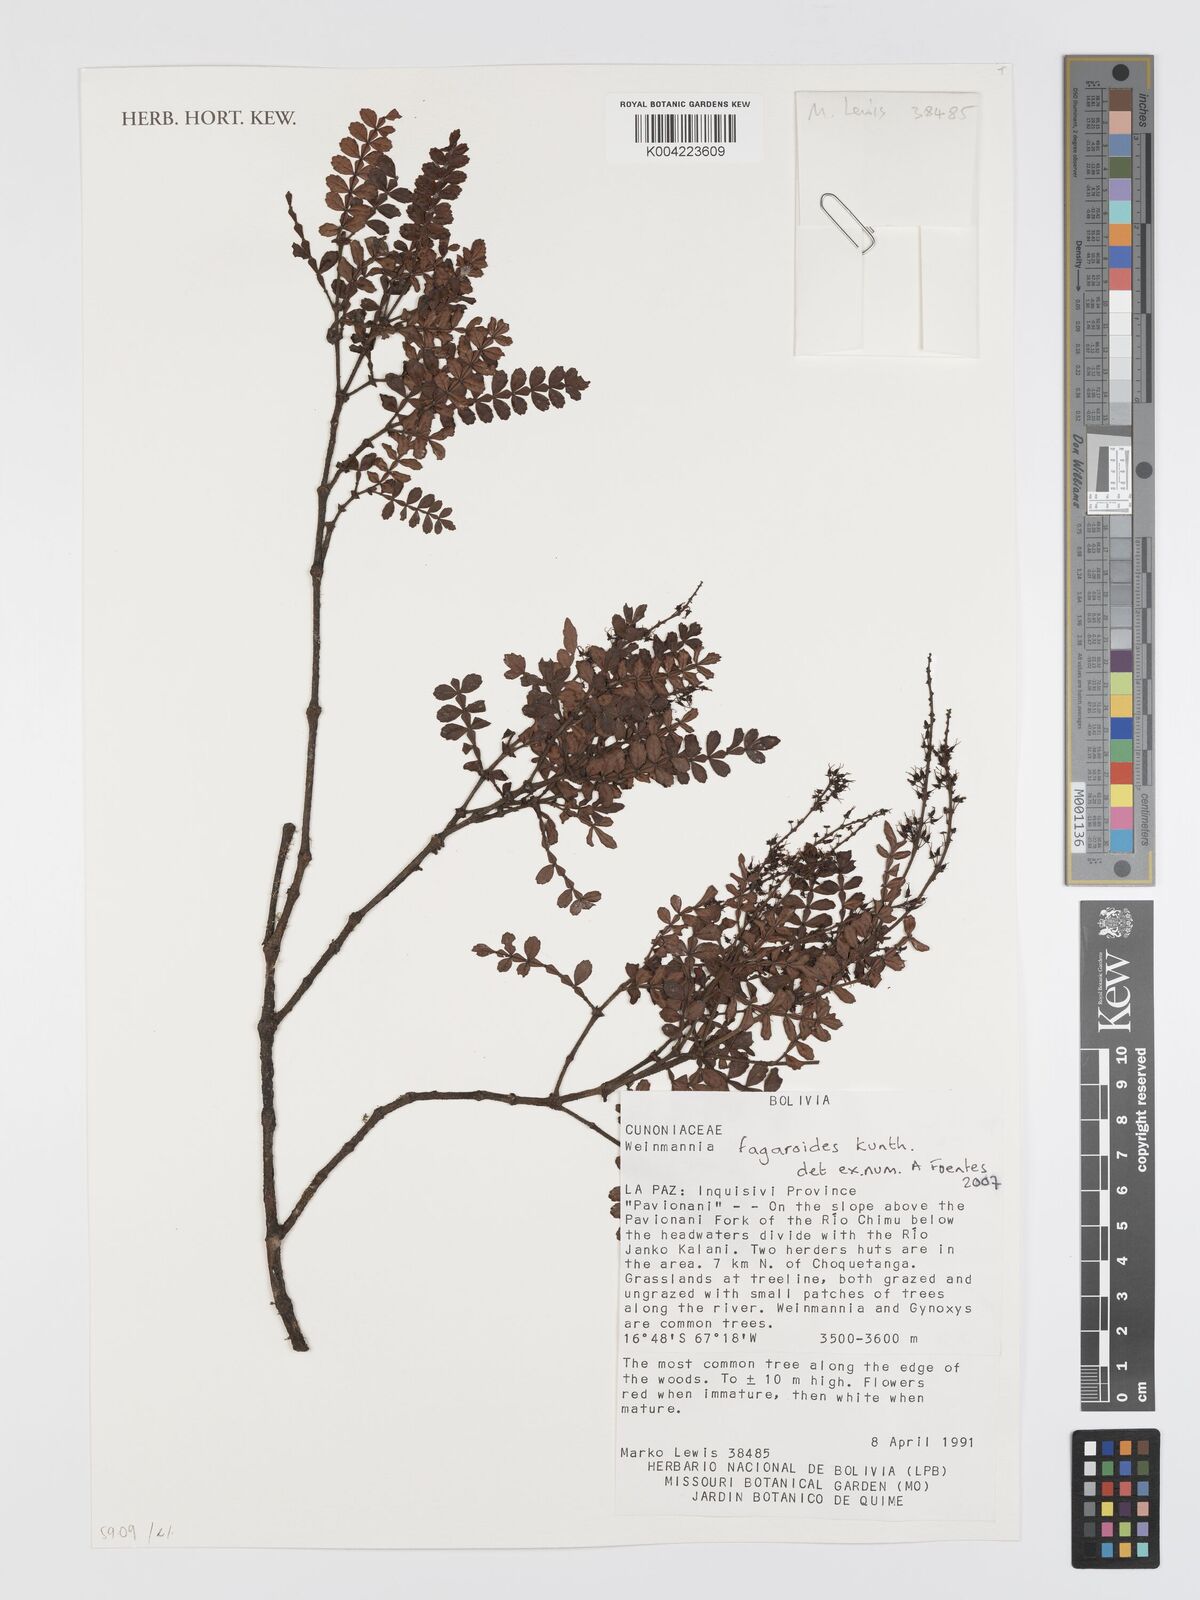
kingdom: Plantae
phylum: Tracheophyta
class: Magnoliopsida
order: Oxalidales
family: Cunoniaceae
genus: Weinmannia
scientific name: Weinmannia fagaroides
